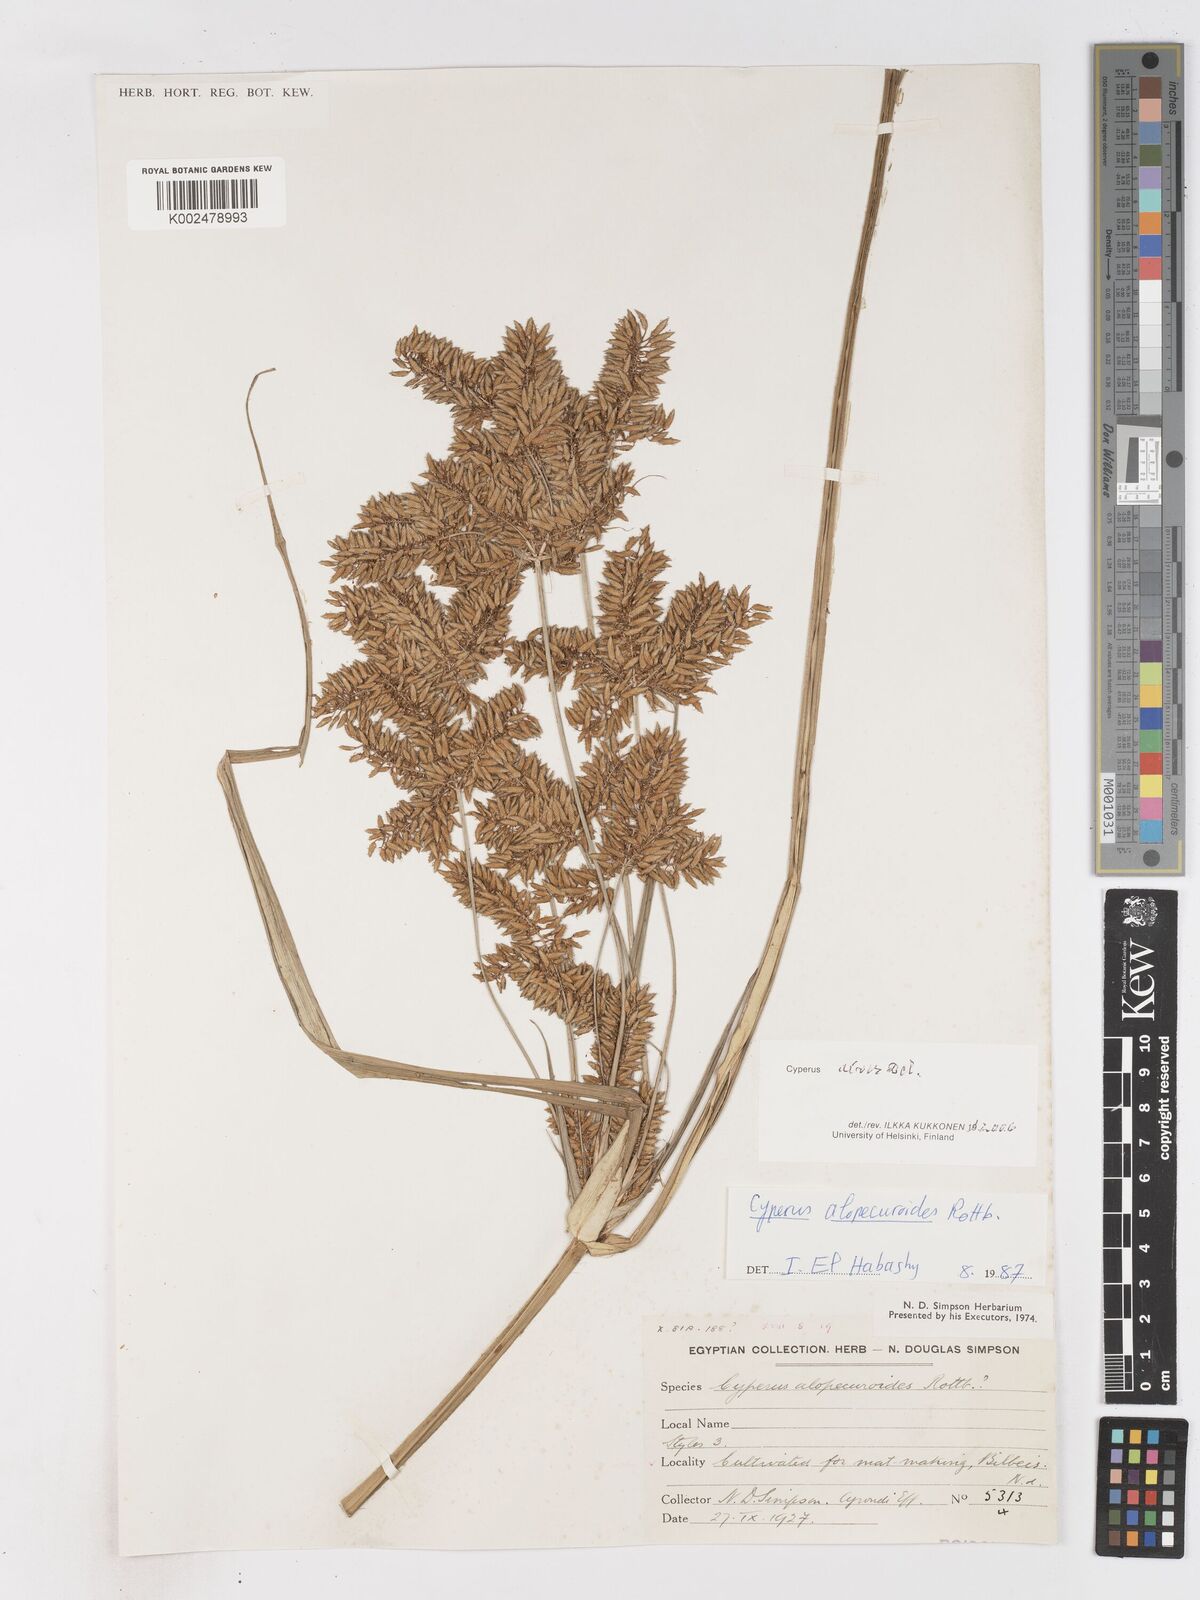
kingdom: Plantae
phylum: Tracheophyta
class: Liliopsida
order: Poales
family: Cyperaceae
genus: Cyperus
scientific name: Cyperus
